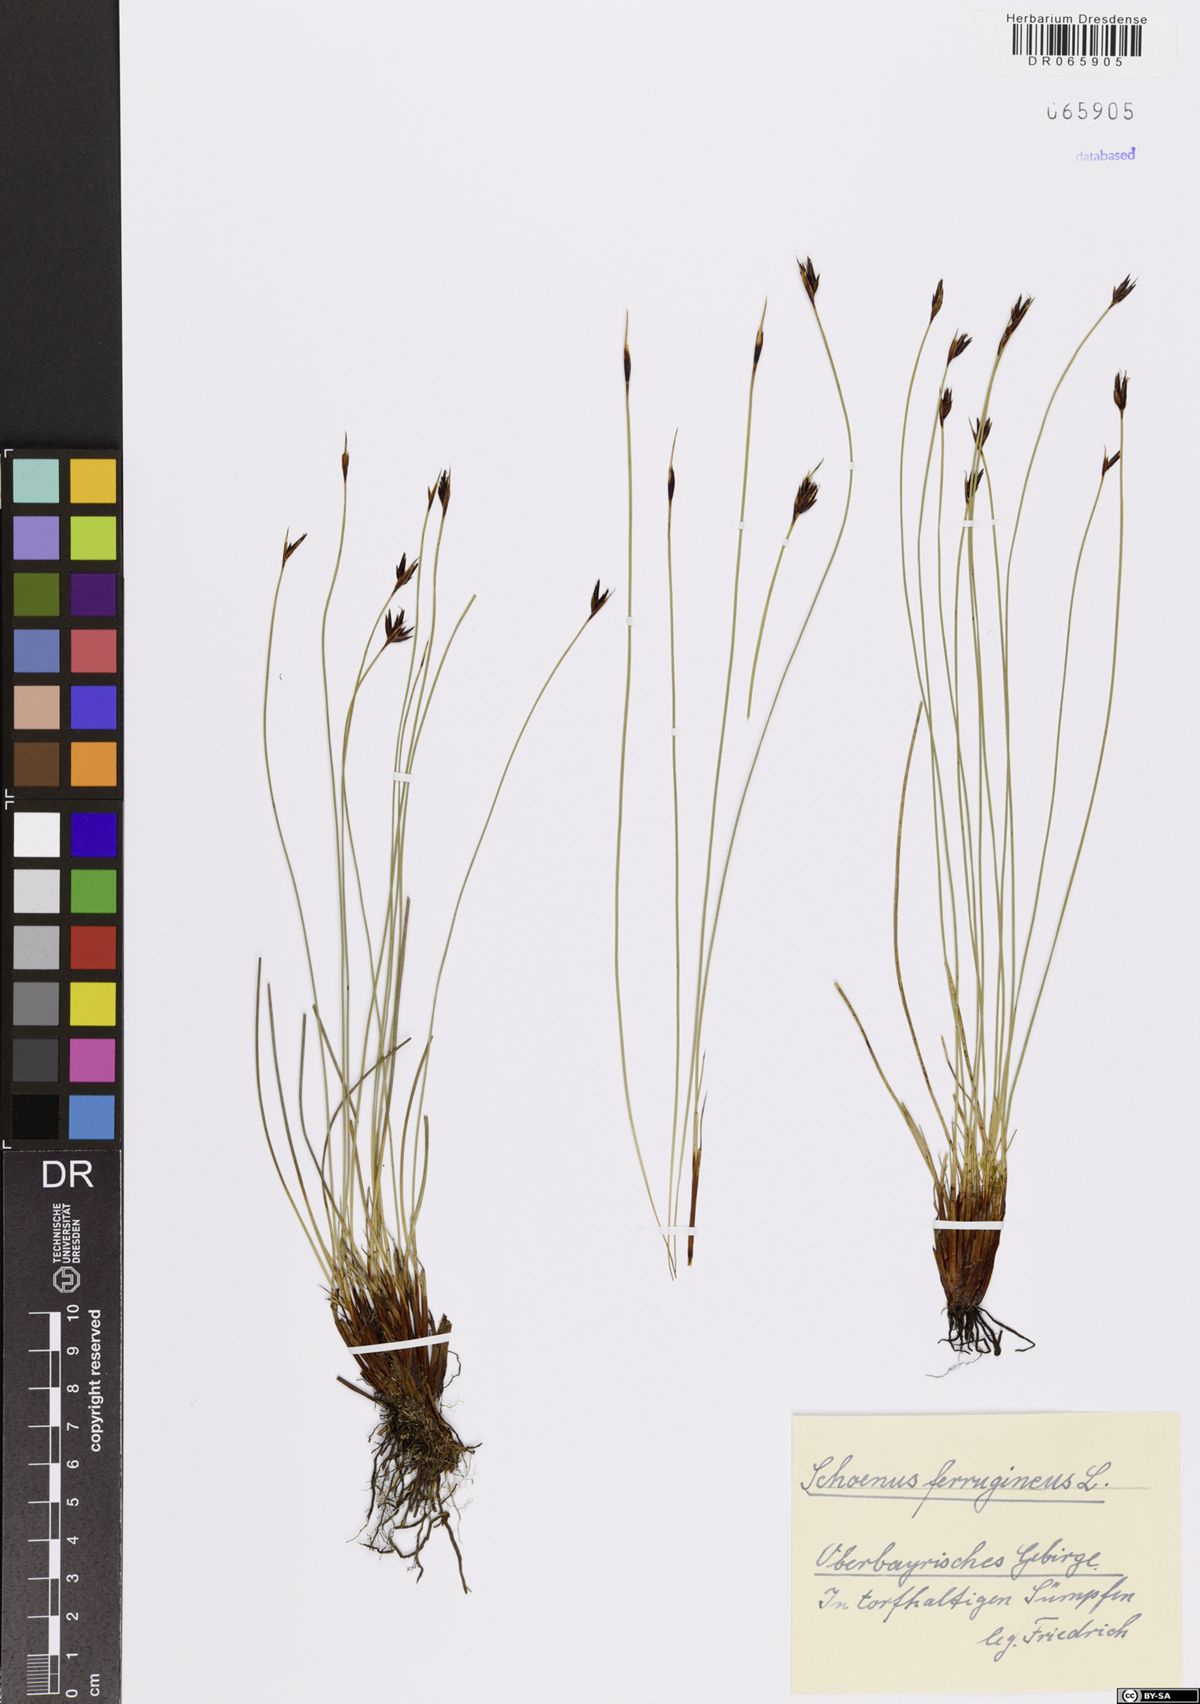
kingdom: Plantae
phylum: Tracheophyta
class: Liliopsida
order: Poales
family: Cyperaceae
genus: Schoenus
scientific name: Schoenus ferrugineus
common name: Brown bog-rush
